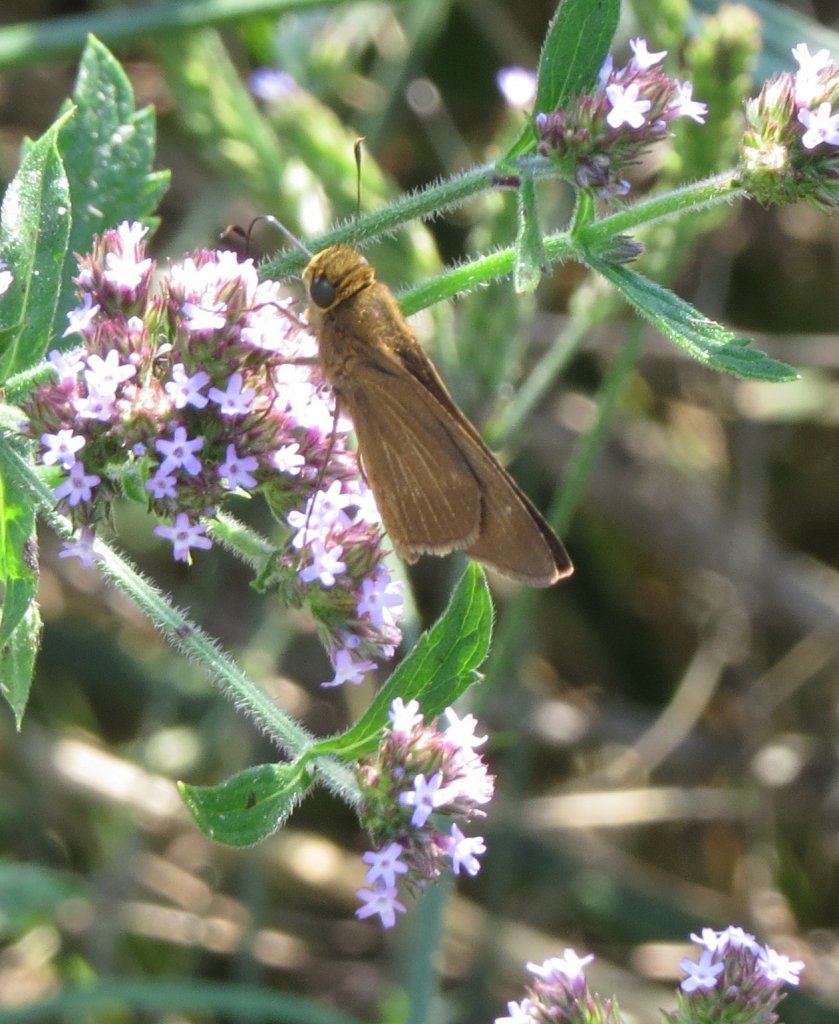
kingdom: Animalia
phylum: Arthropoda
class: Insecta
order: Lepidoptera
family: Hesperiidae
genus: Panoquina
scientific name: Panoquina ocola
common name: Ocola Skipper
